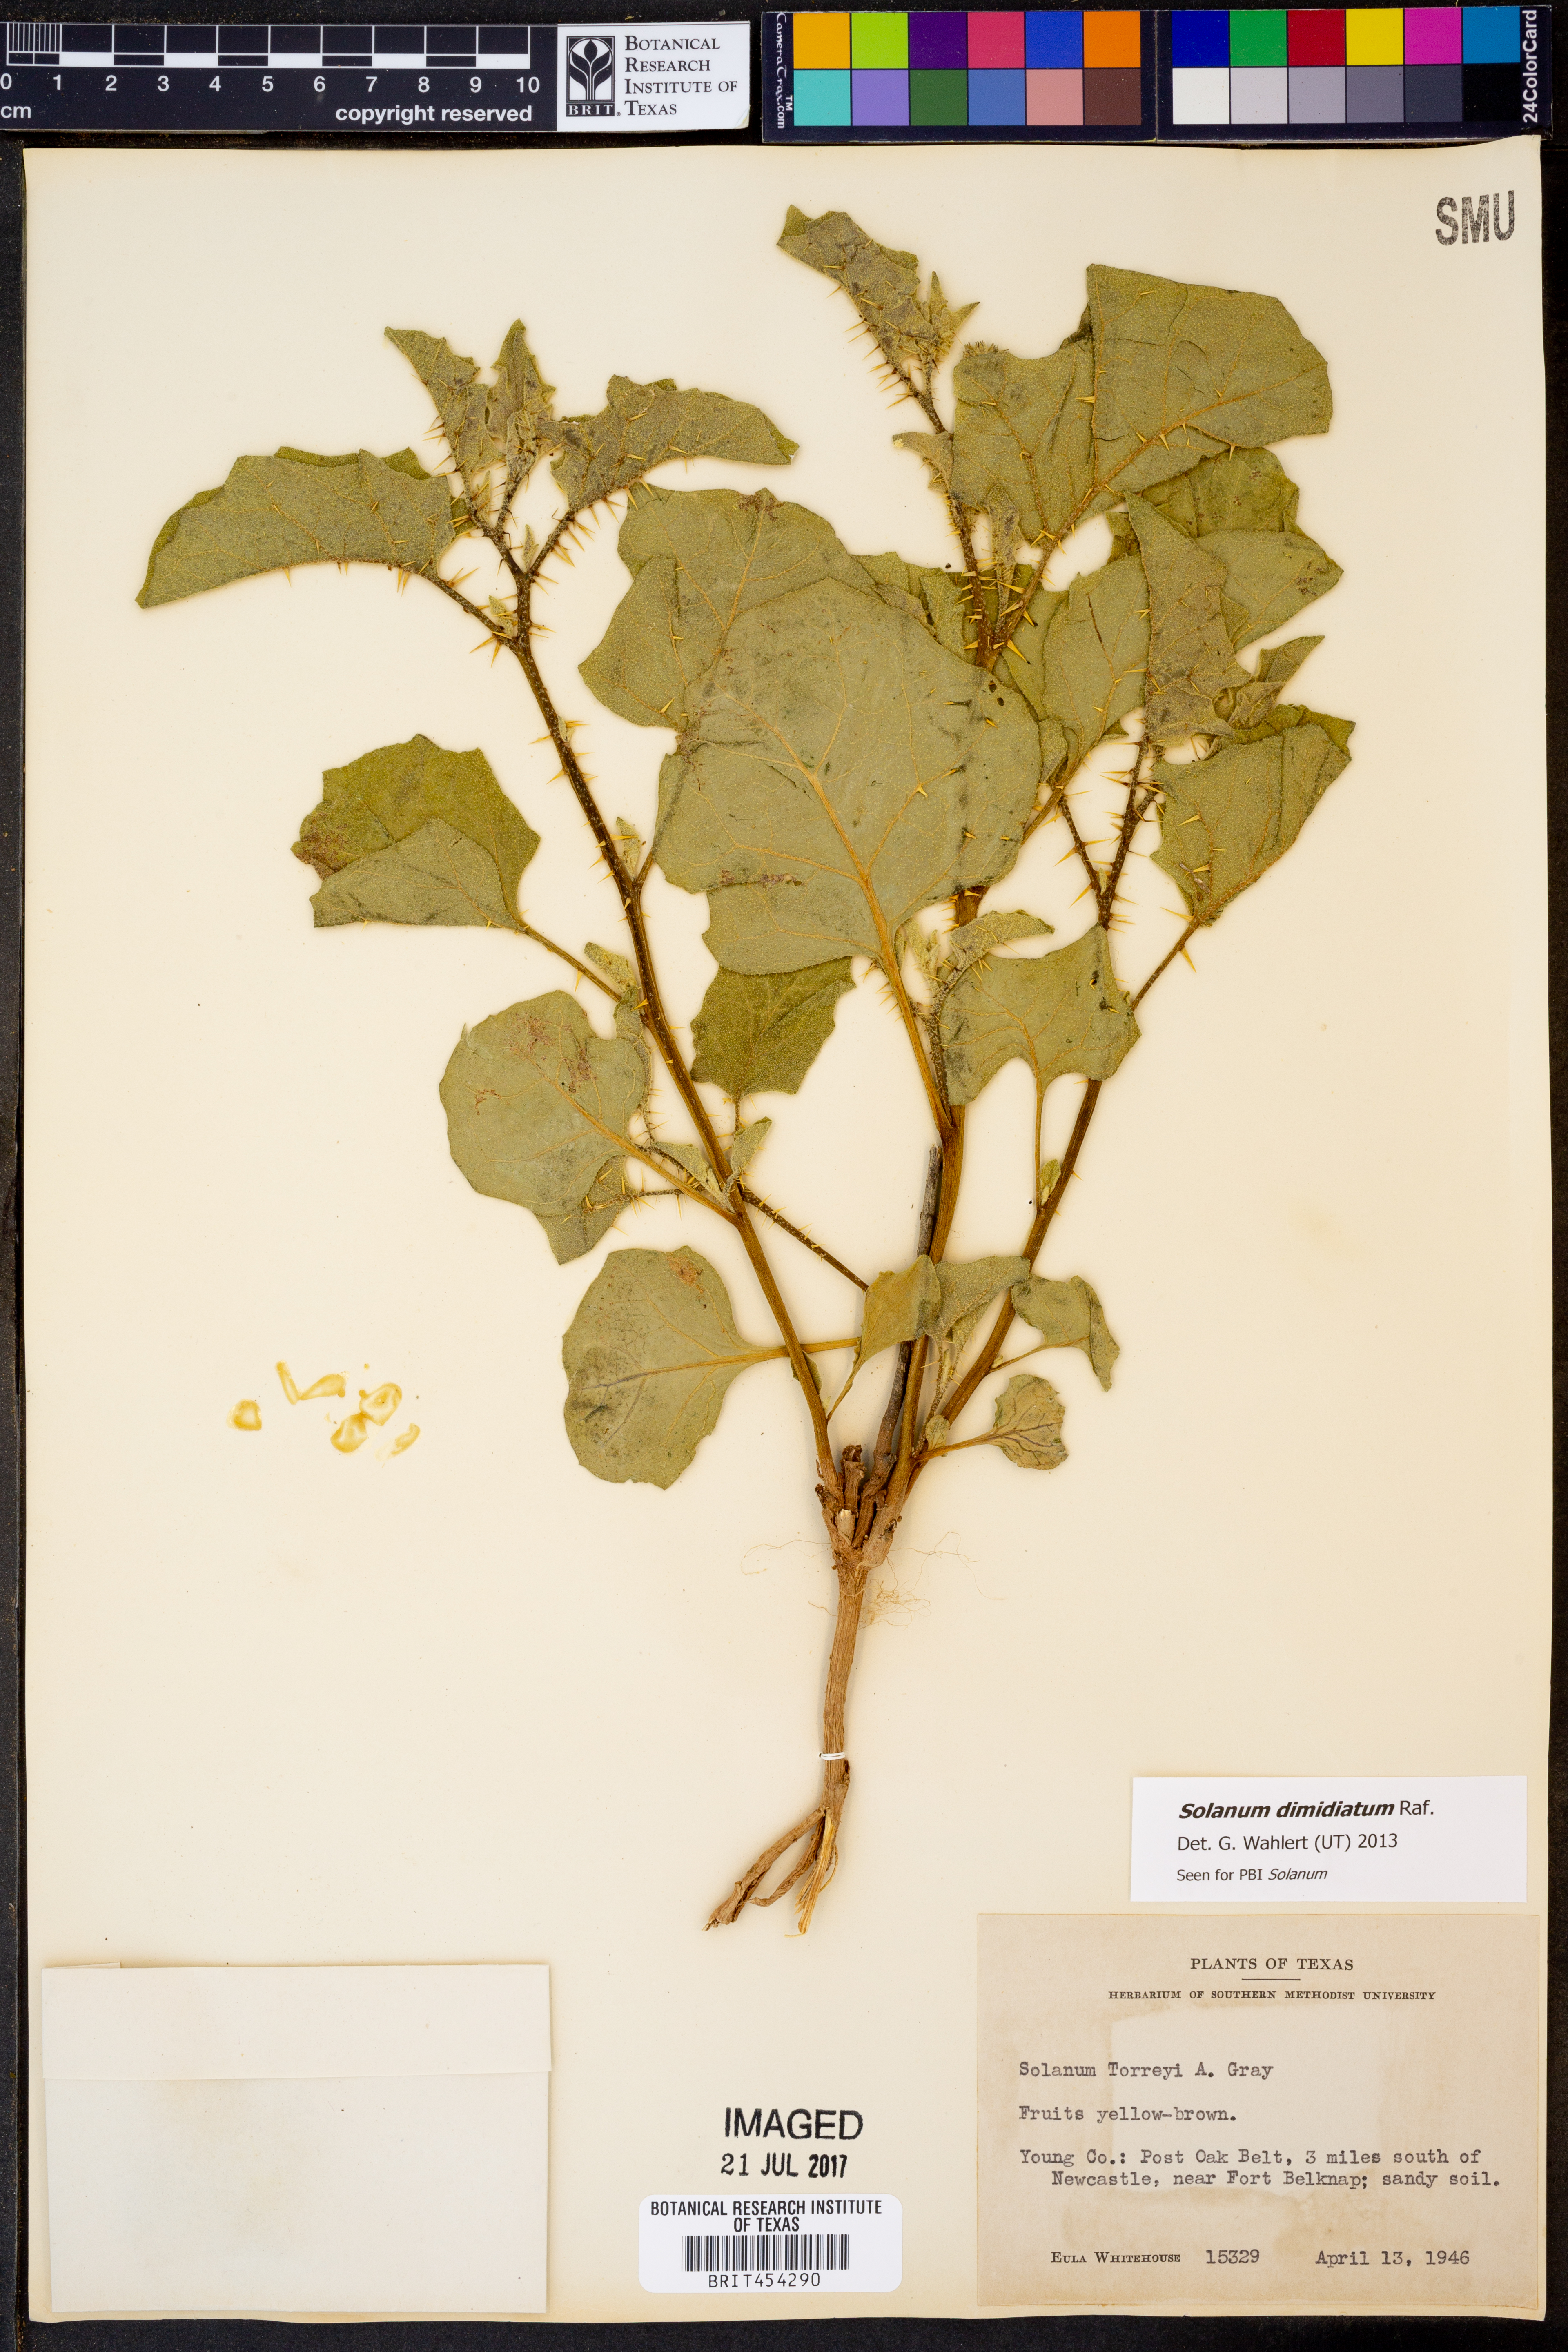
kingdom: Plantae
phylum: Tracheophyta
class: Magnoliopsida
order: Solanales
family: Solanaceae
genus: Solanum
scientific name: Solanum dimidiatum
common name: Carolina horse-nettle
